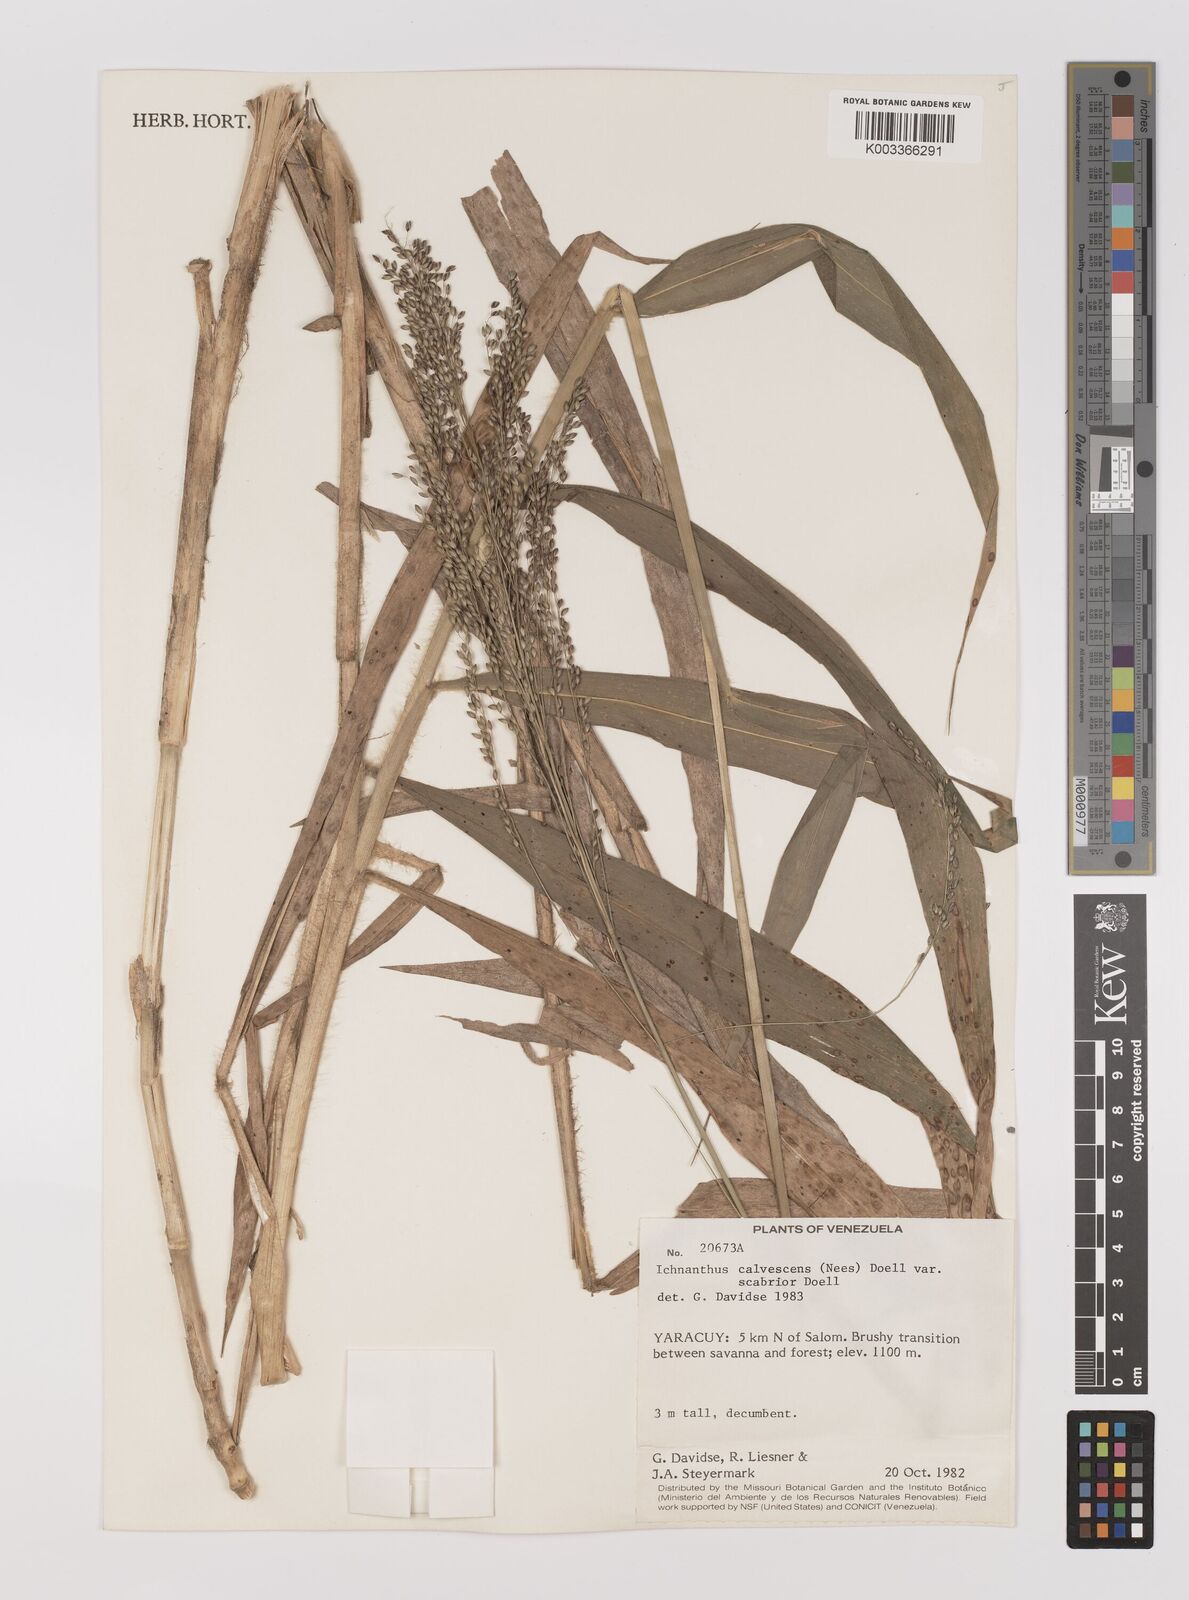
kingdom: Plantae
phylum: Tracheophyta
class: Liliopsida
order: Poales
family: Poaceae
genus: Ichnanthus
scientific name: Ichnanthus calvescens
